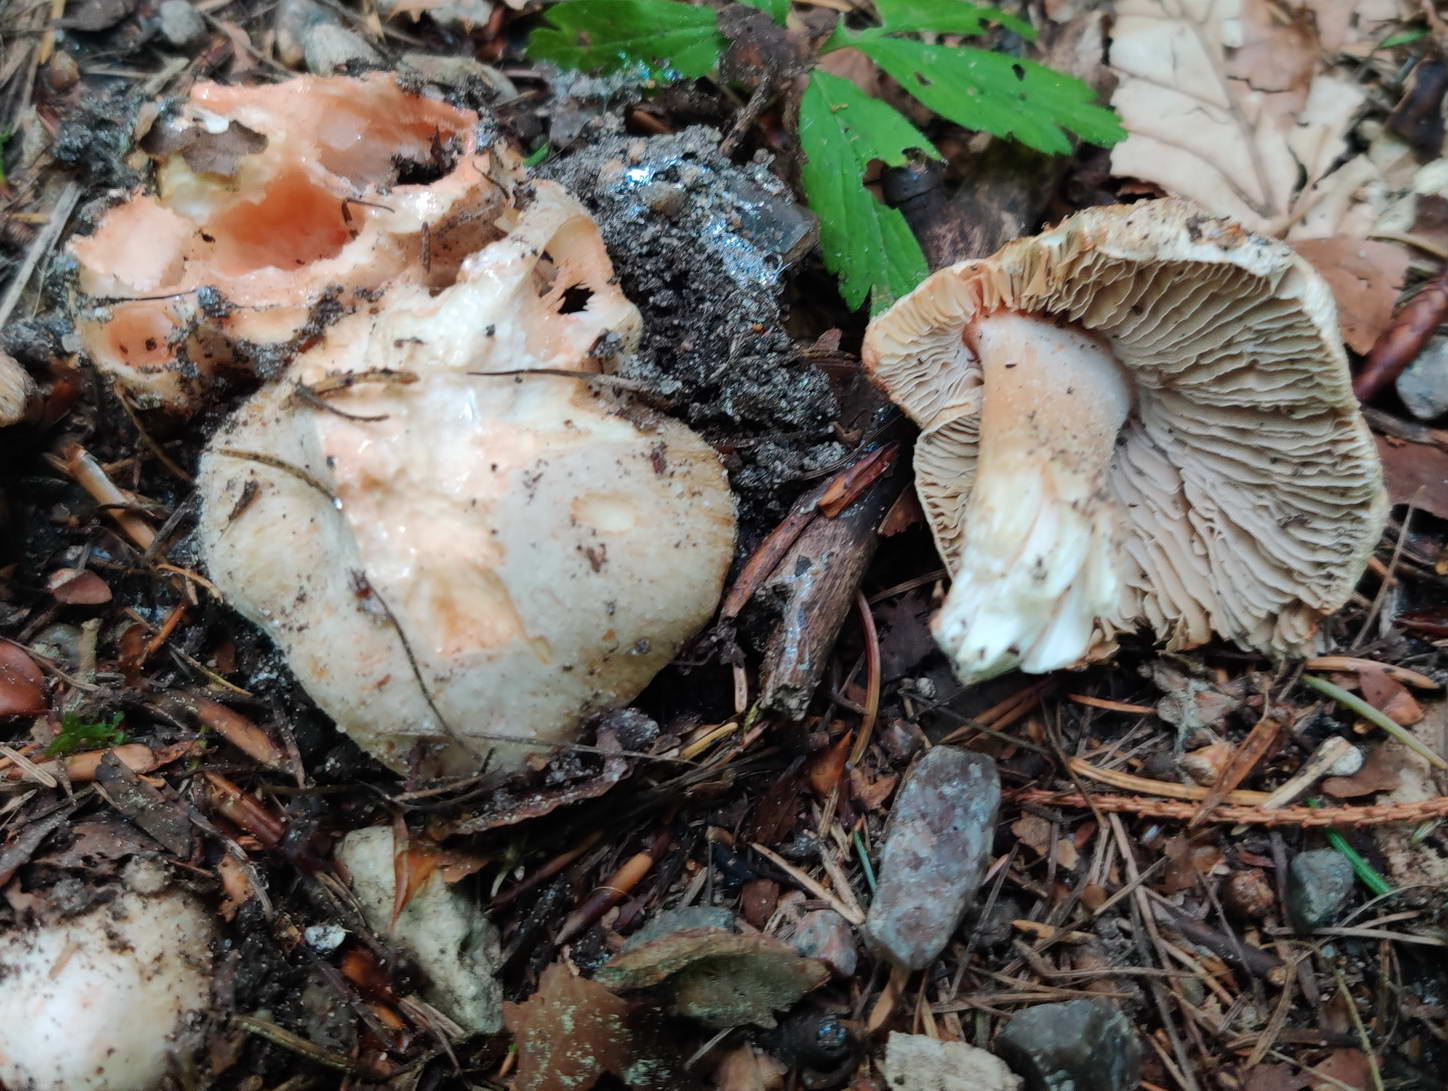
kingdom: Fungi
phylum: Basidiomycota
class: Agaricomycetes
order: Agaricales
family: Inocybaceae
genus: Inosperma
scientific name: Inosperma erubescens
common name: giftig trævlhat
